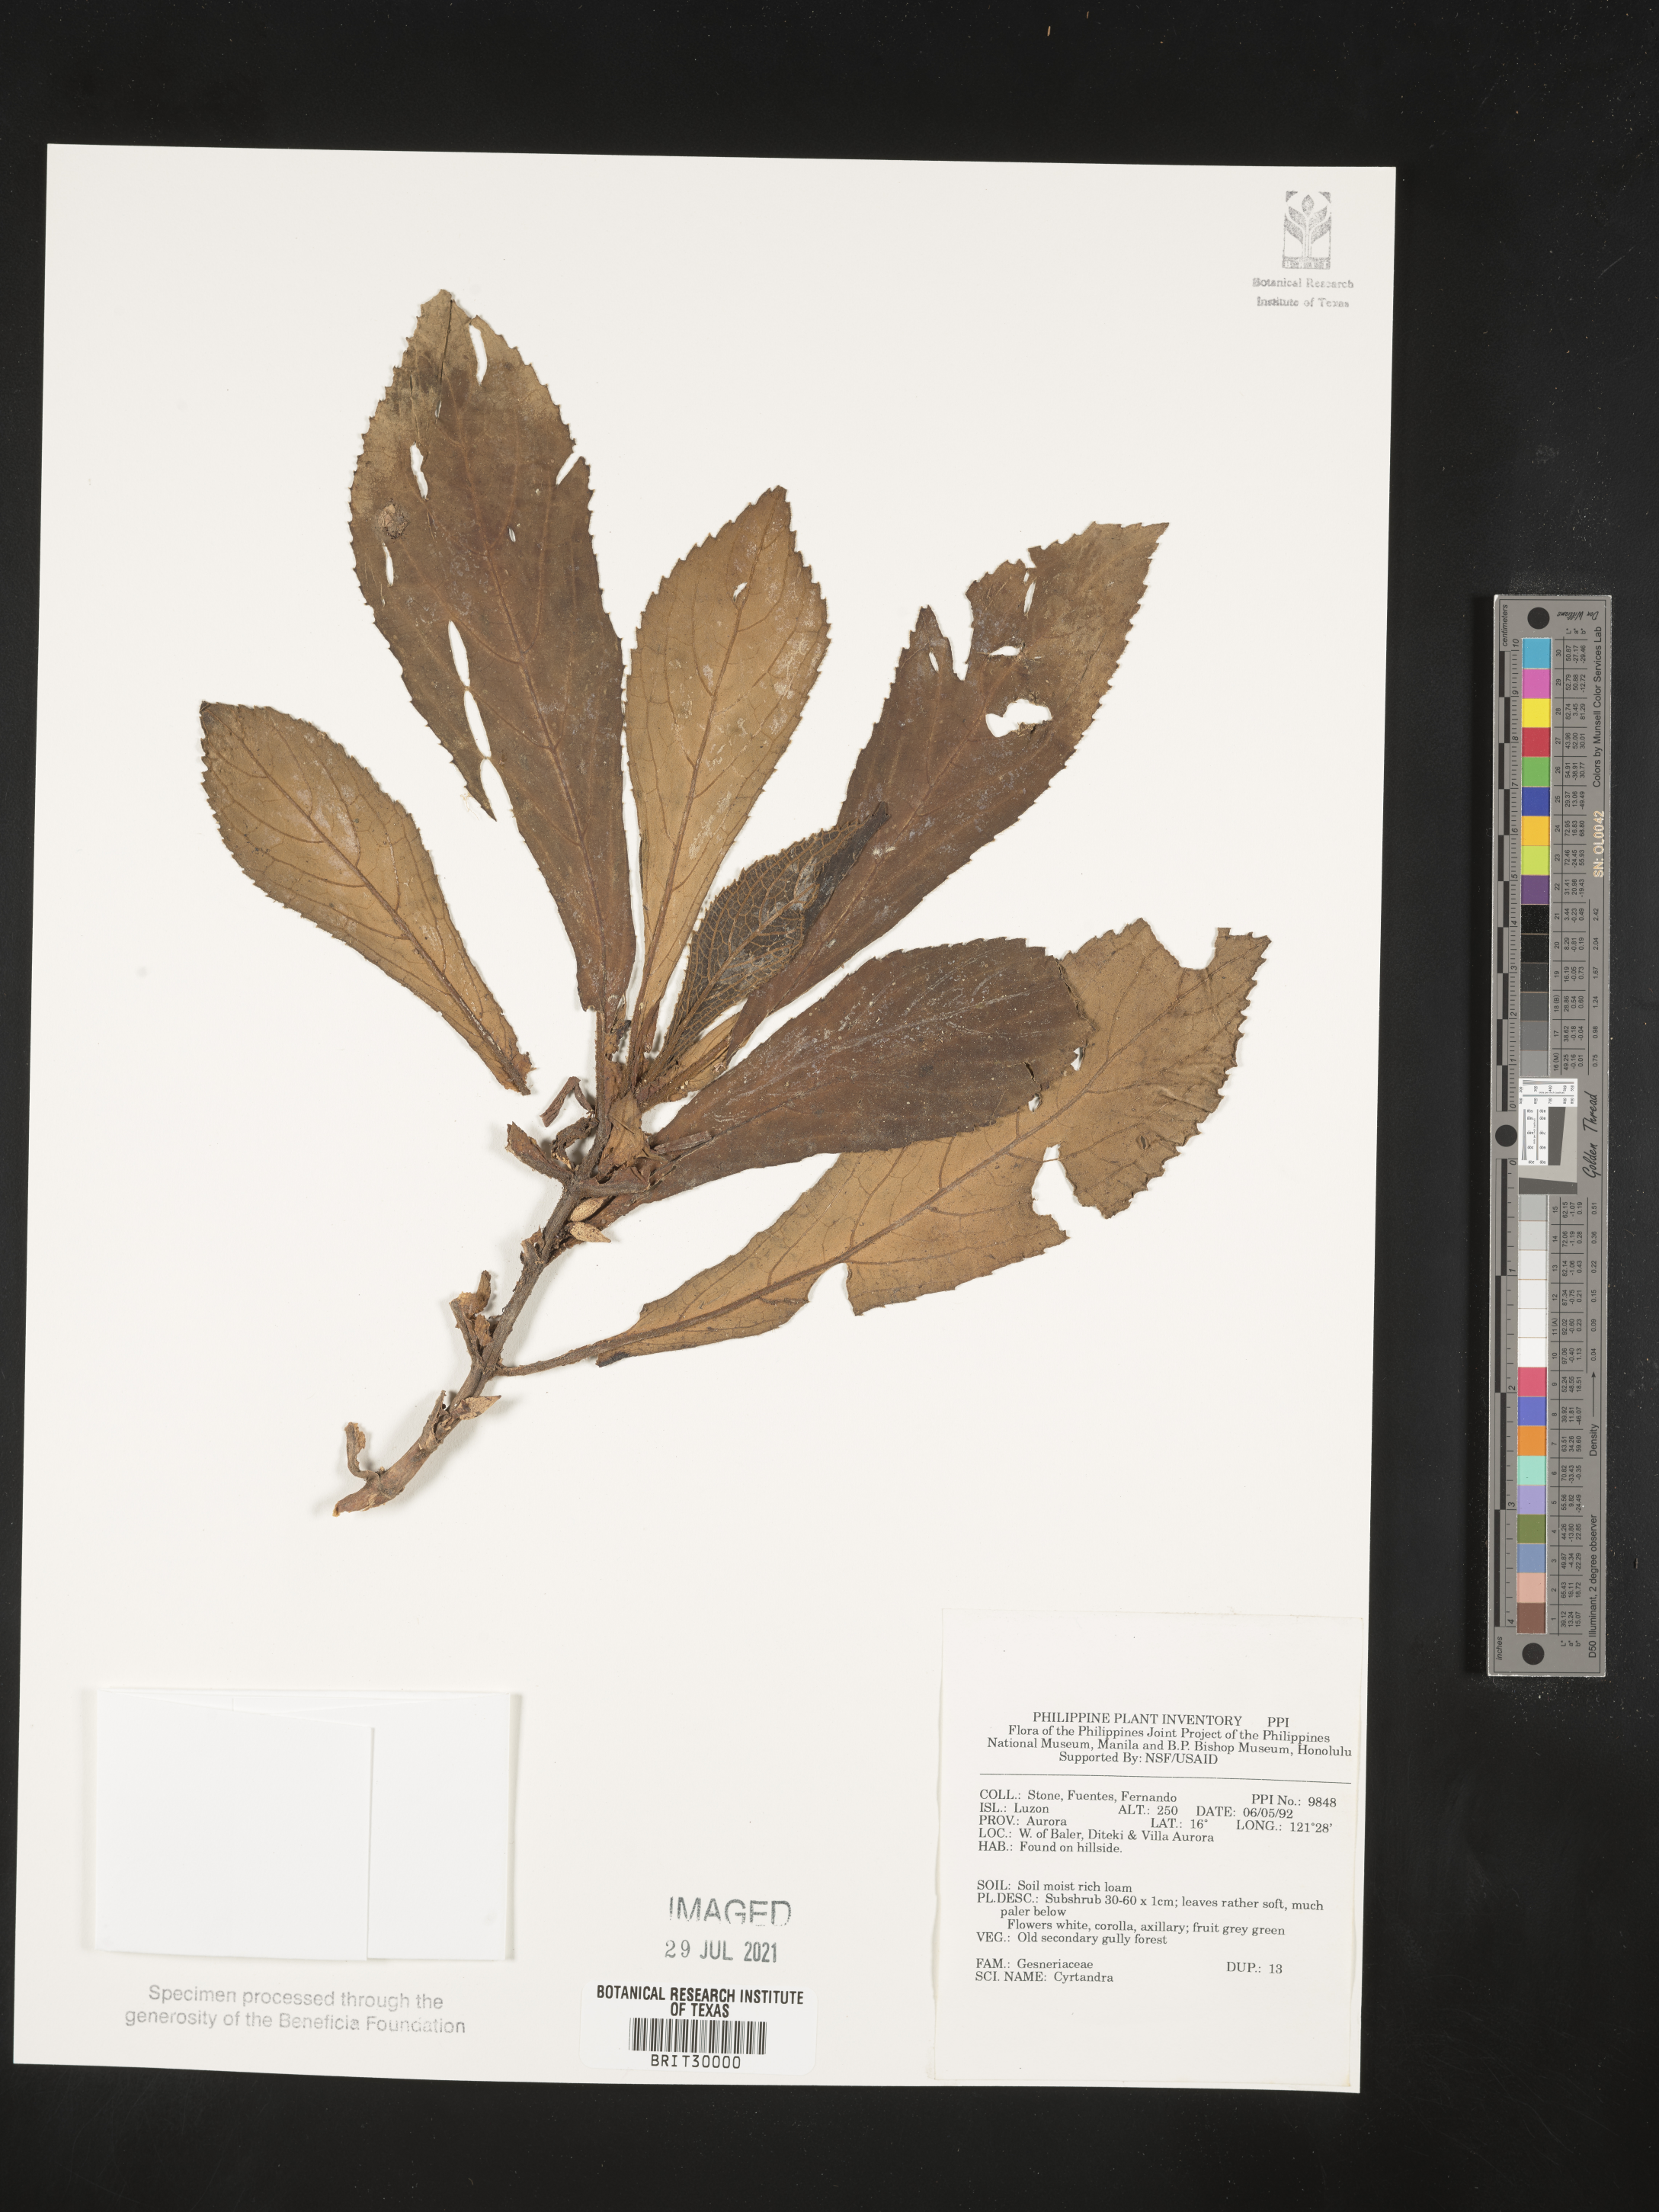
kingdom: Plantae
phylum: Tracheophyta
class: Magnoliopsida
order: Lamiales
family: Gesneriaceae
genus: Cyrtandra
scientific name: Cyrtandra
